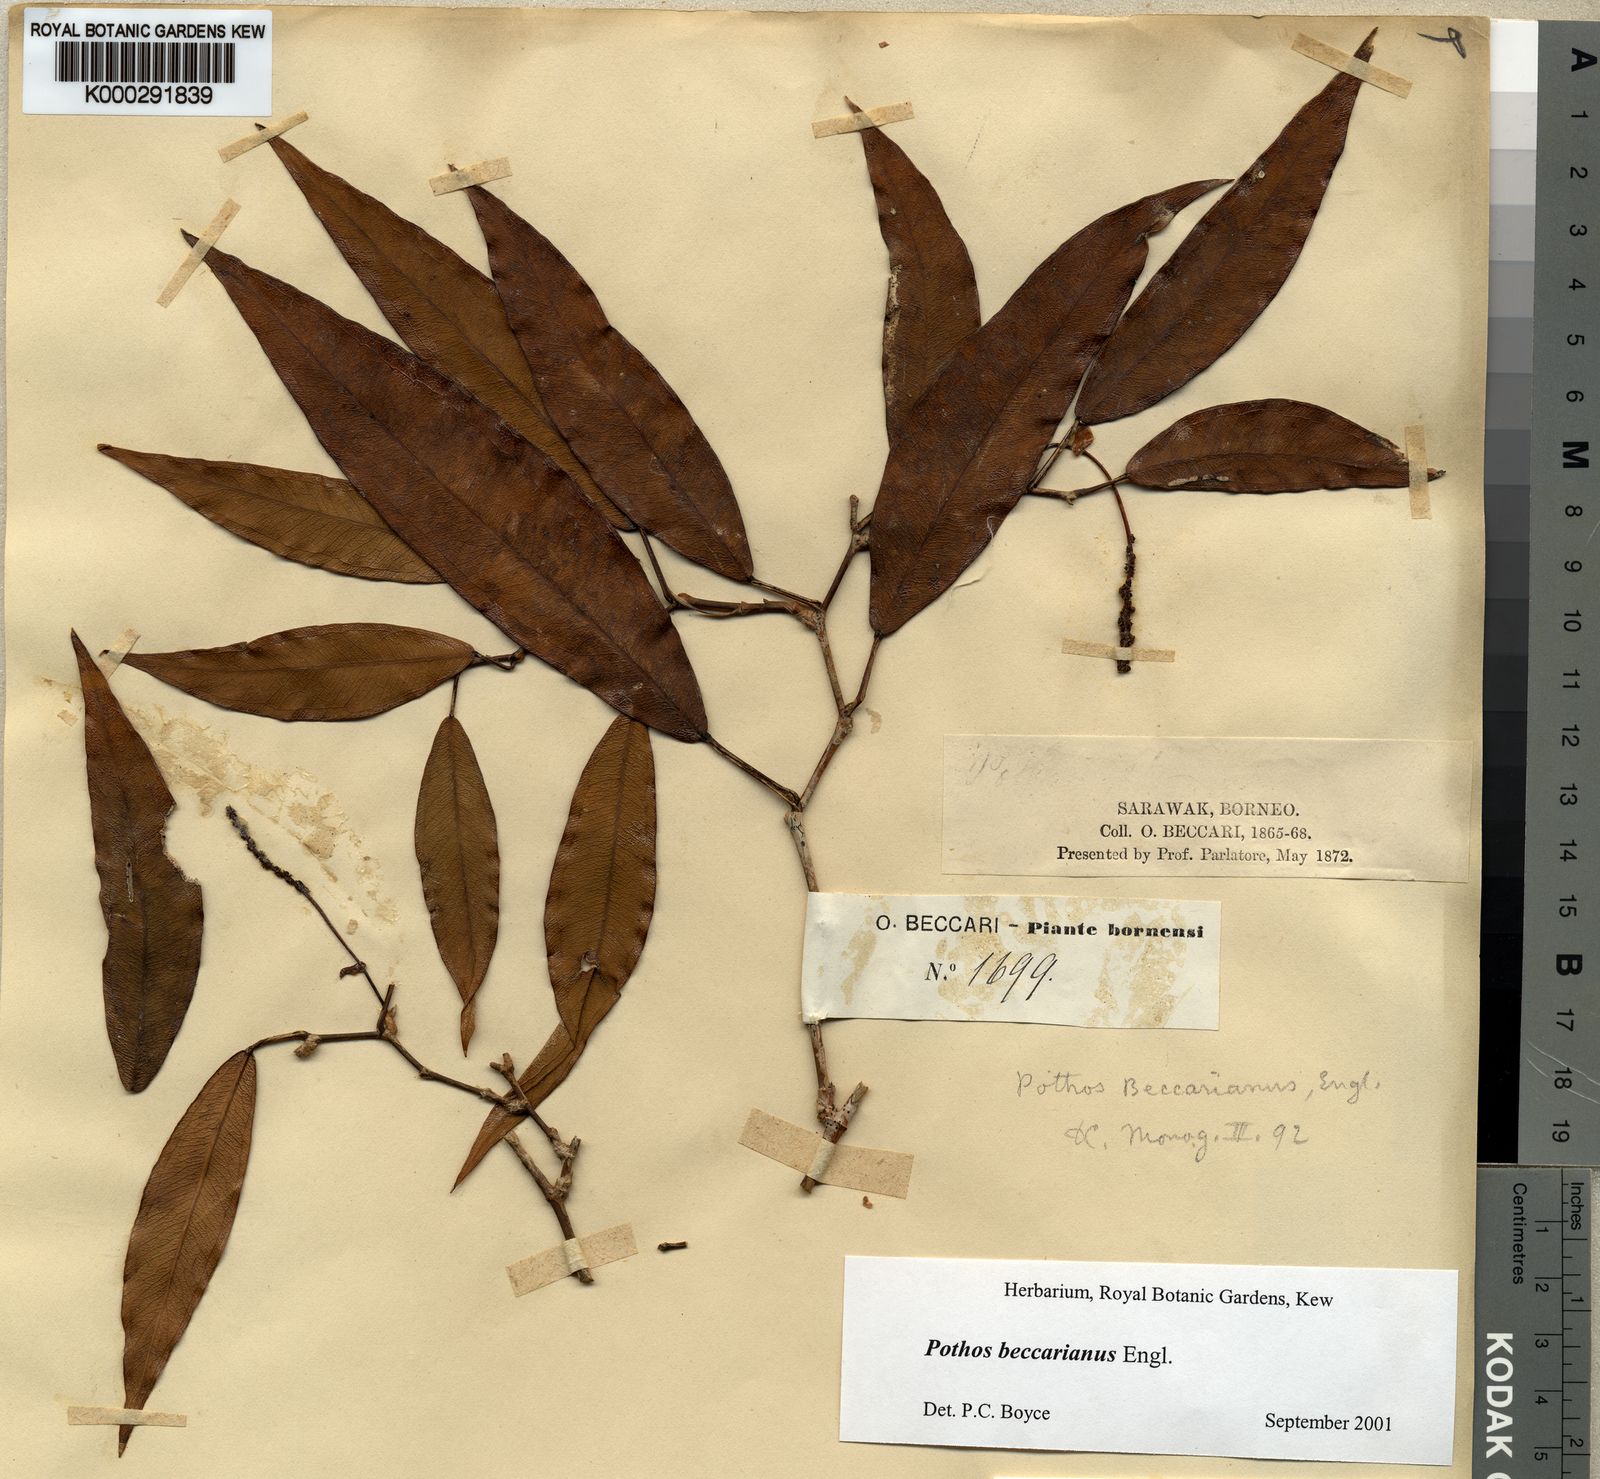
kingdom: Plantae
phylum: Tracheophyta
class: Liliopsida
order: Alismatales
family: Araceae
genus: Pothos
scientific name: Pothos beccarianus
